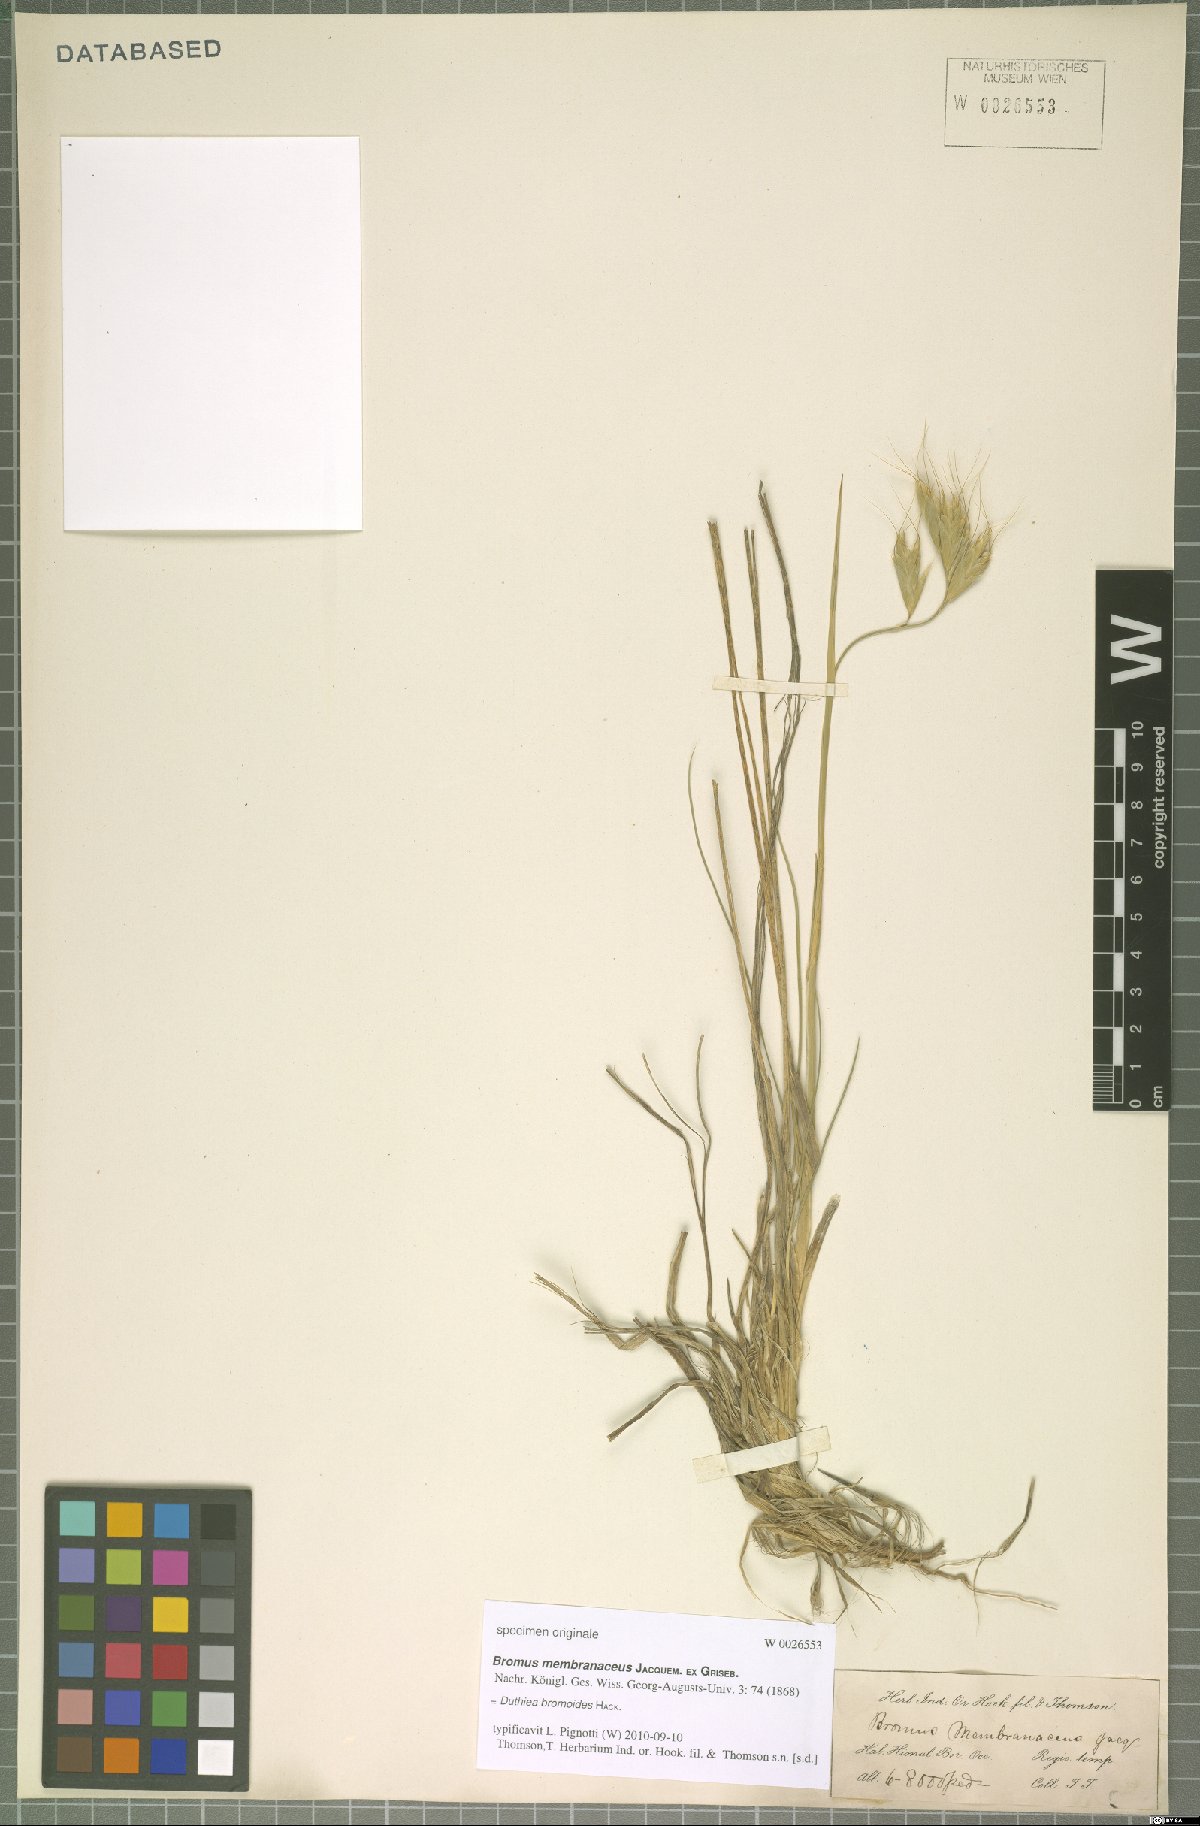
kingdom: Plantae
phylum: Tracheophyta
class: Liliopsida
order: Poales
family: Poaceae
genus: Duthiea
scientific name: Duthiea bromoides
